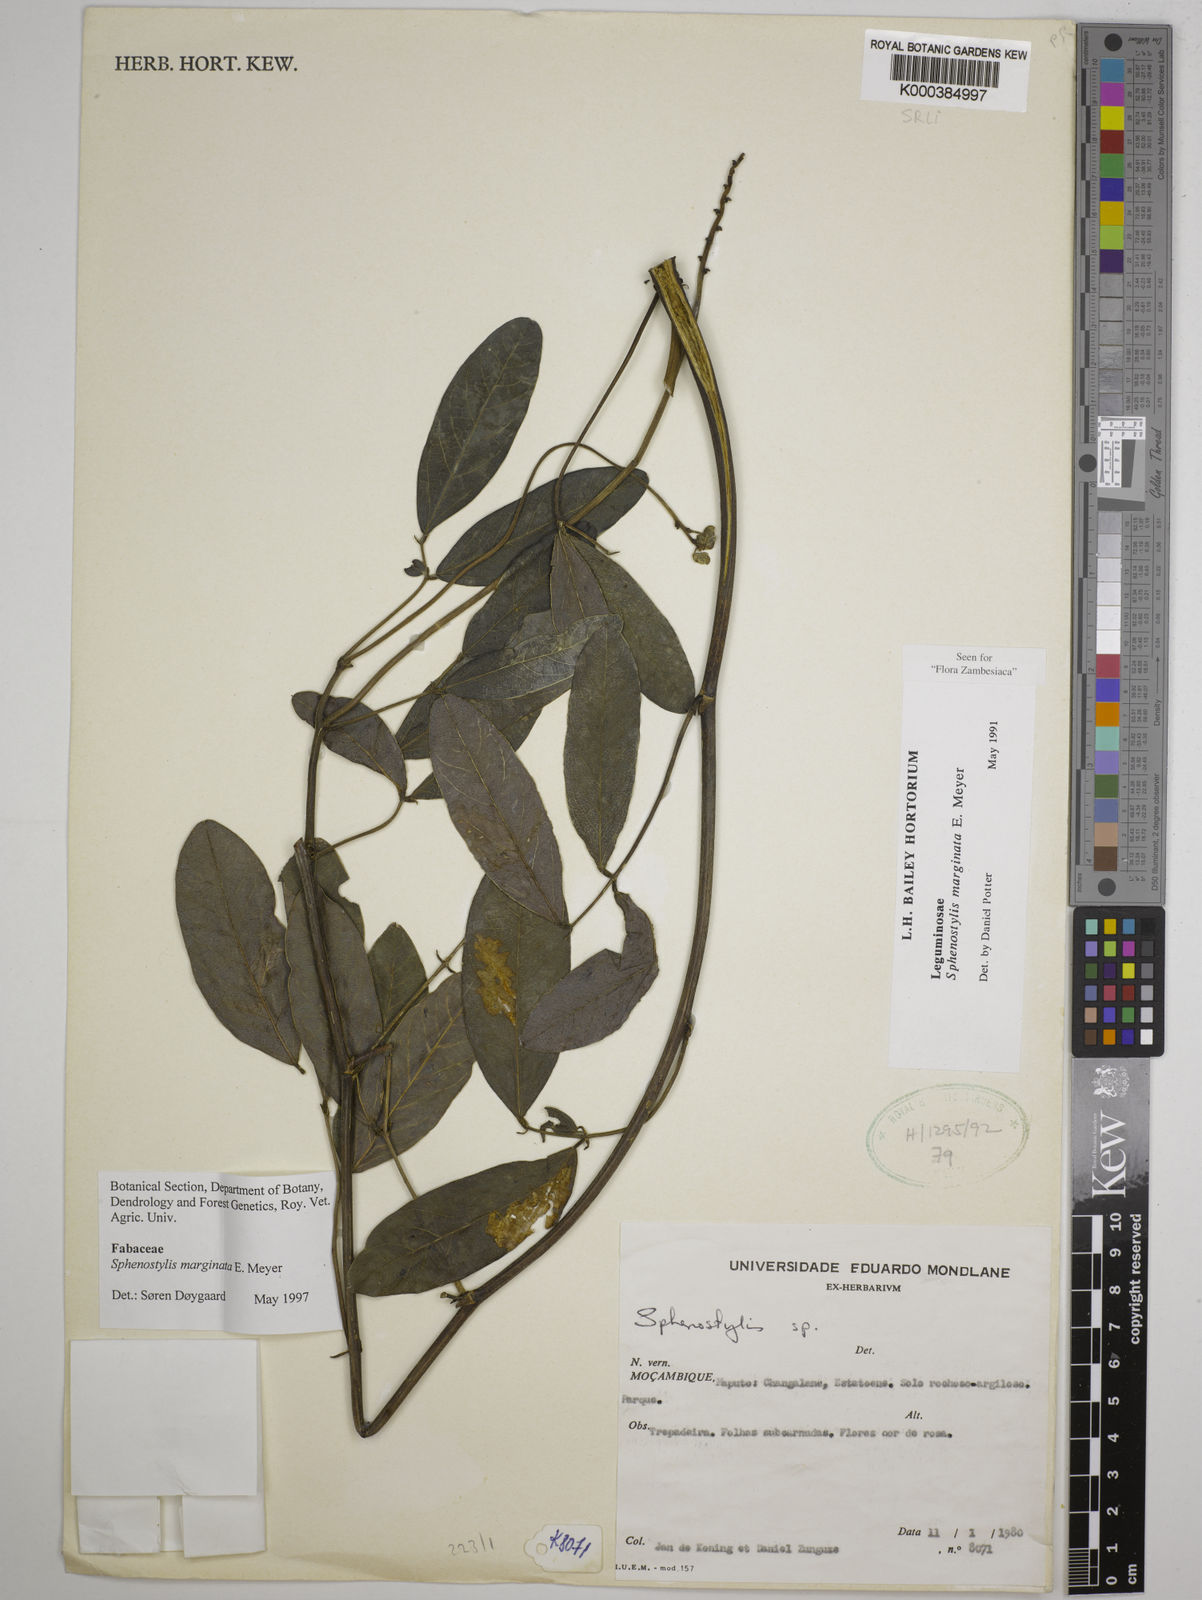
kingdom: Plantae
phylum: Tracheophyta
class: Magnoliopsida
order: Fabales
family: Fabaceae
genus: Sphenostylis
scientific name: Sphenostylis marginata
